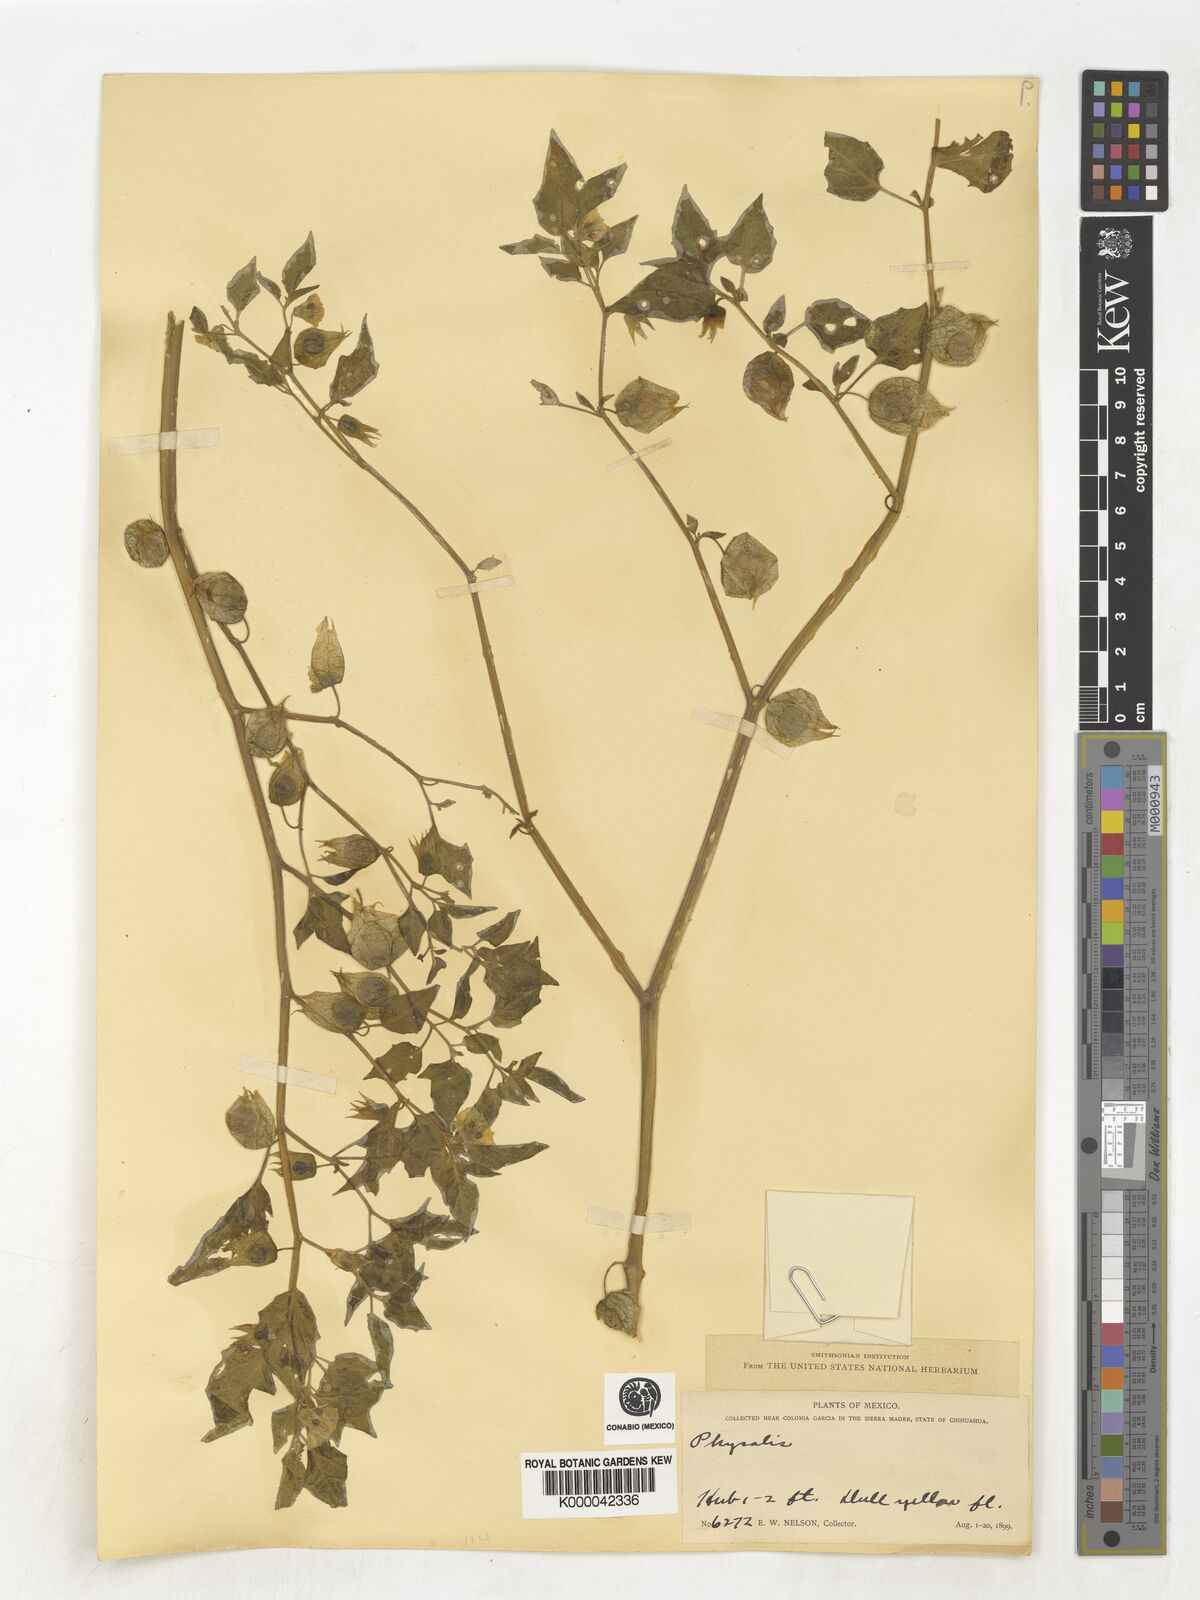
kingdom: Plantae
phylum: Tracheophyta
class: Magnoliopsida
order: Solanales
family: Solanaceae
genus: Physalis
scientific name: Physalis
